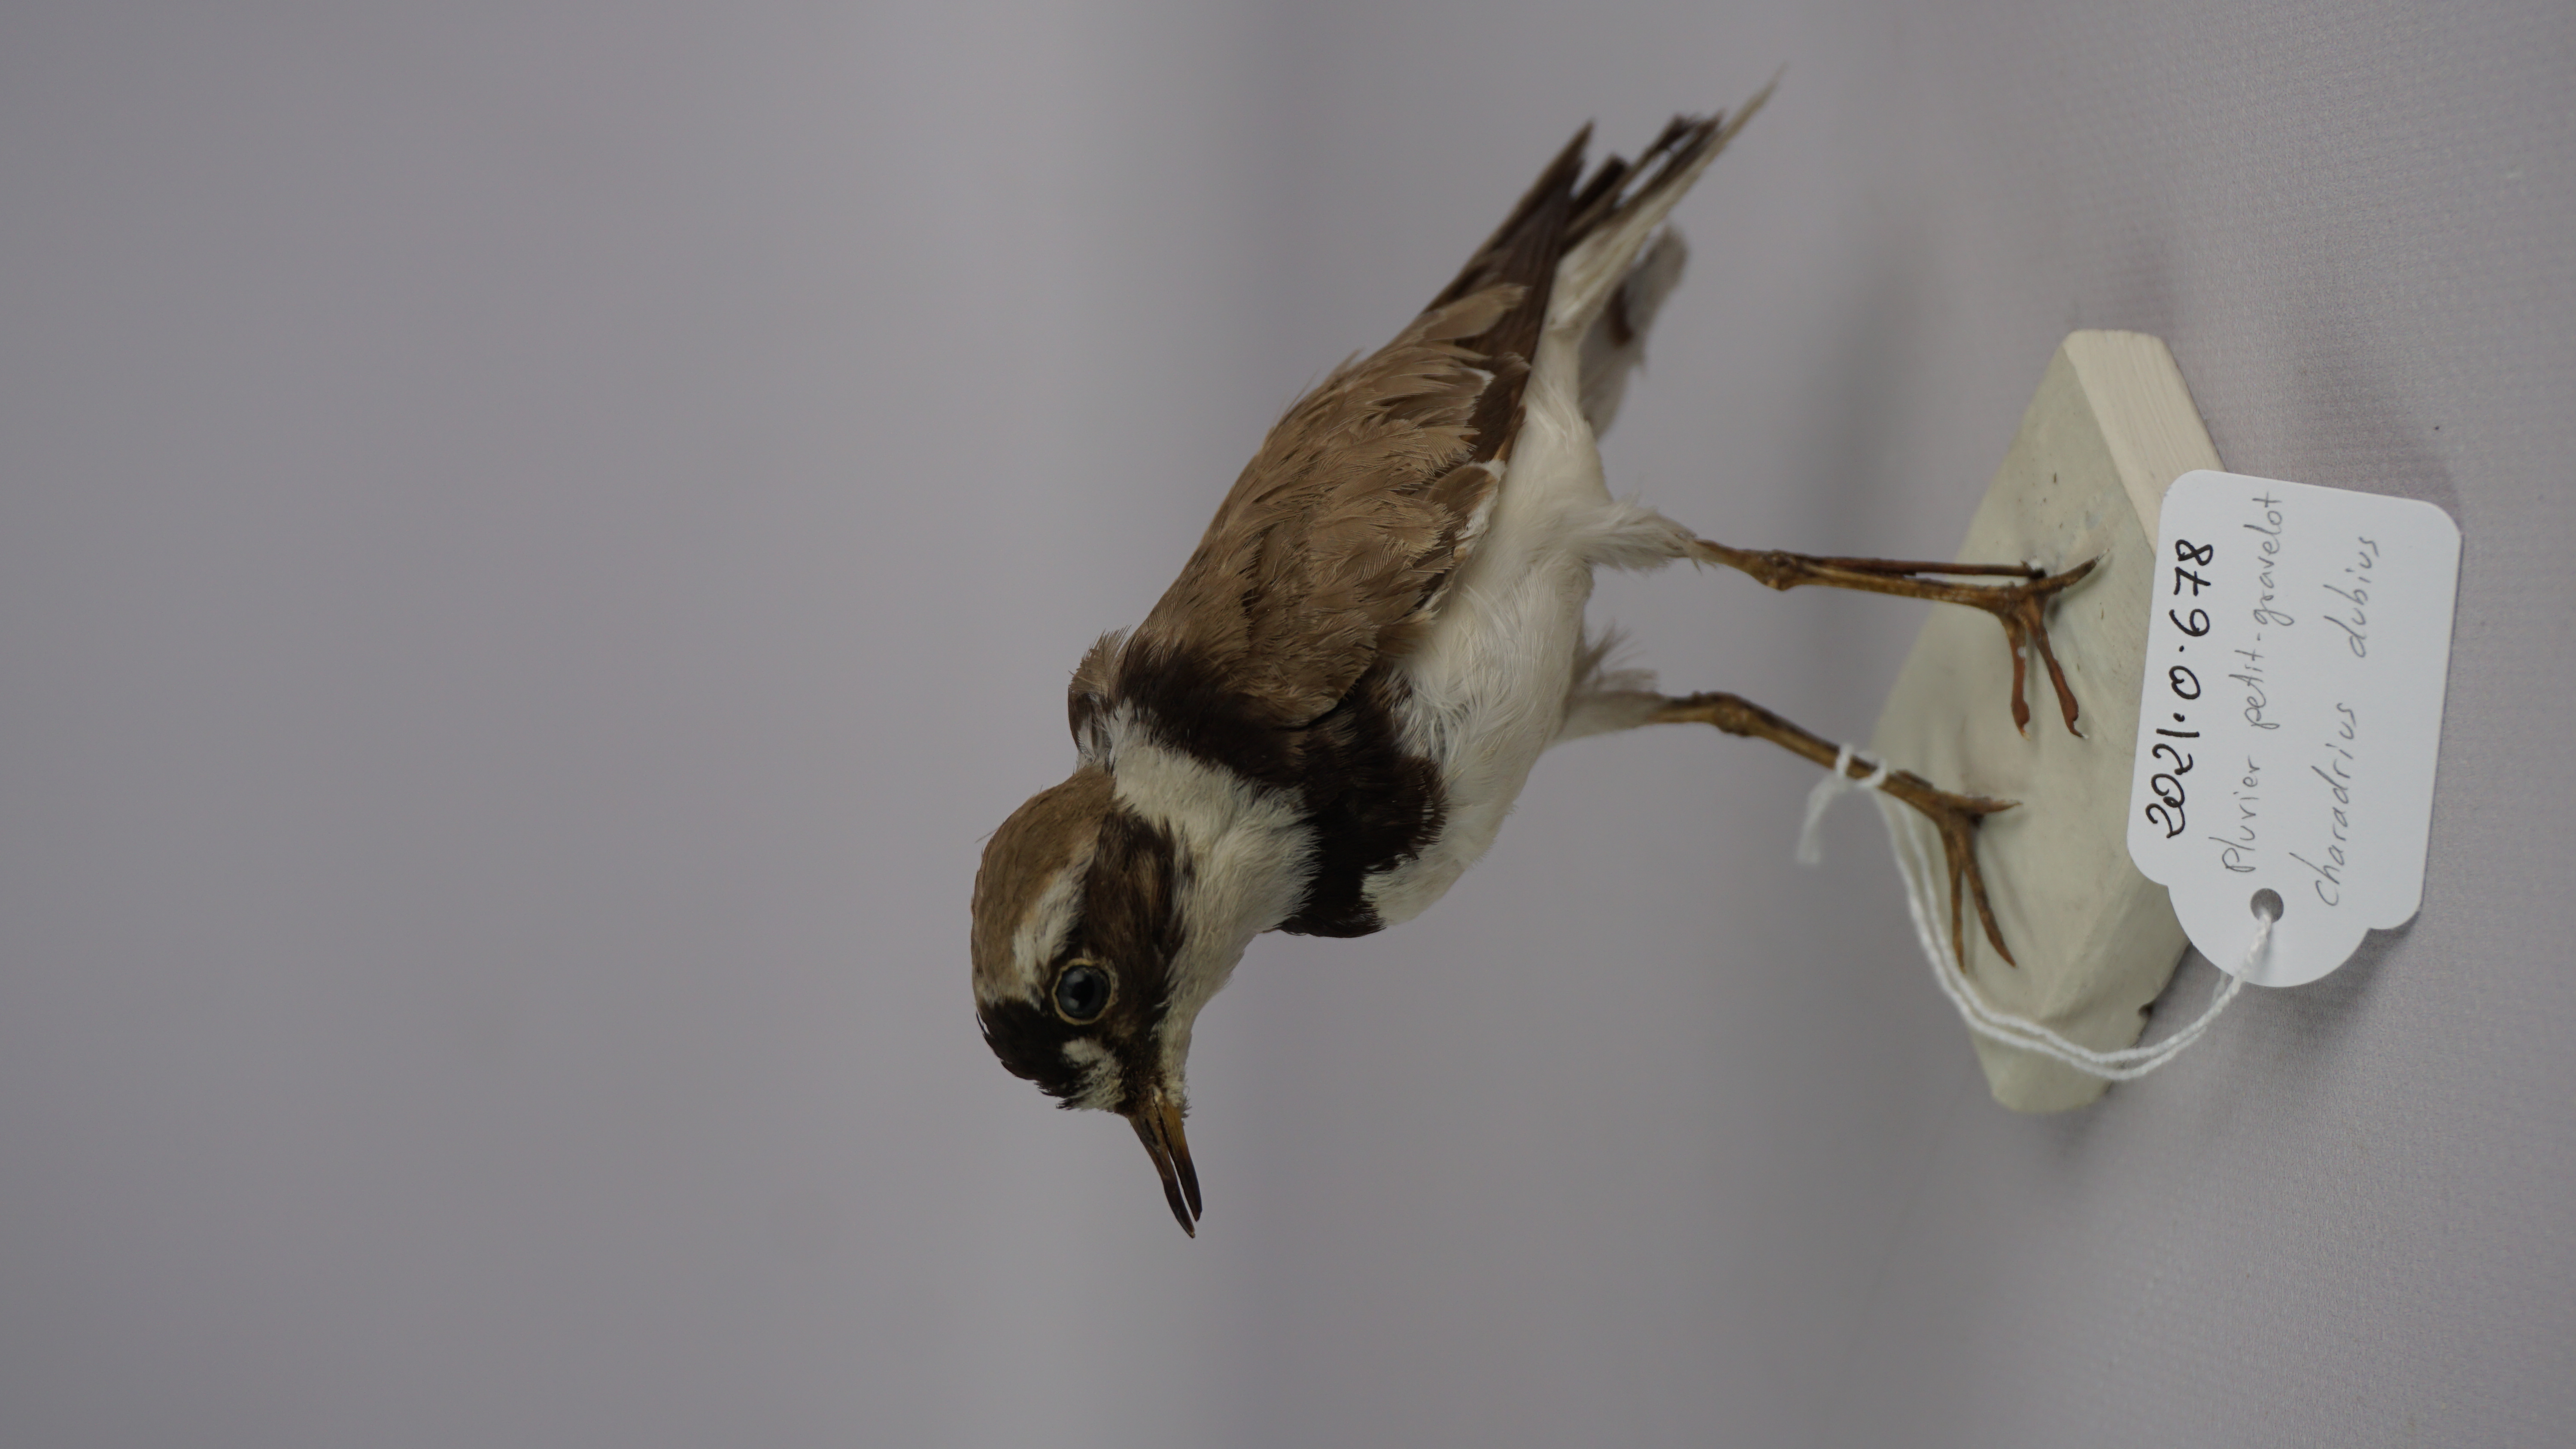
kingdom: Animalia
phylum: Chordata
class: Aves
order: Charadriiformes
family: Charadriidae
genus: Charadrius
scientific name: Charadrius dubius
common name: Little ringed plover
